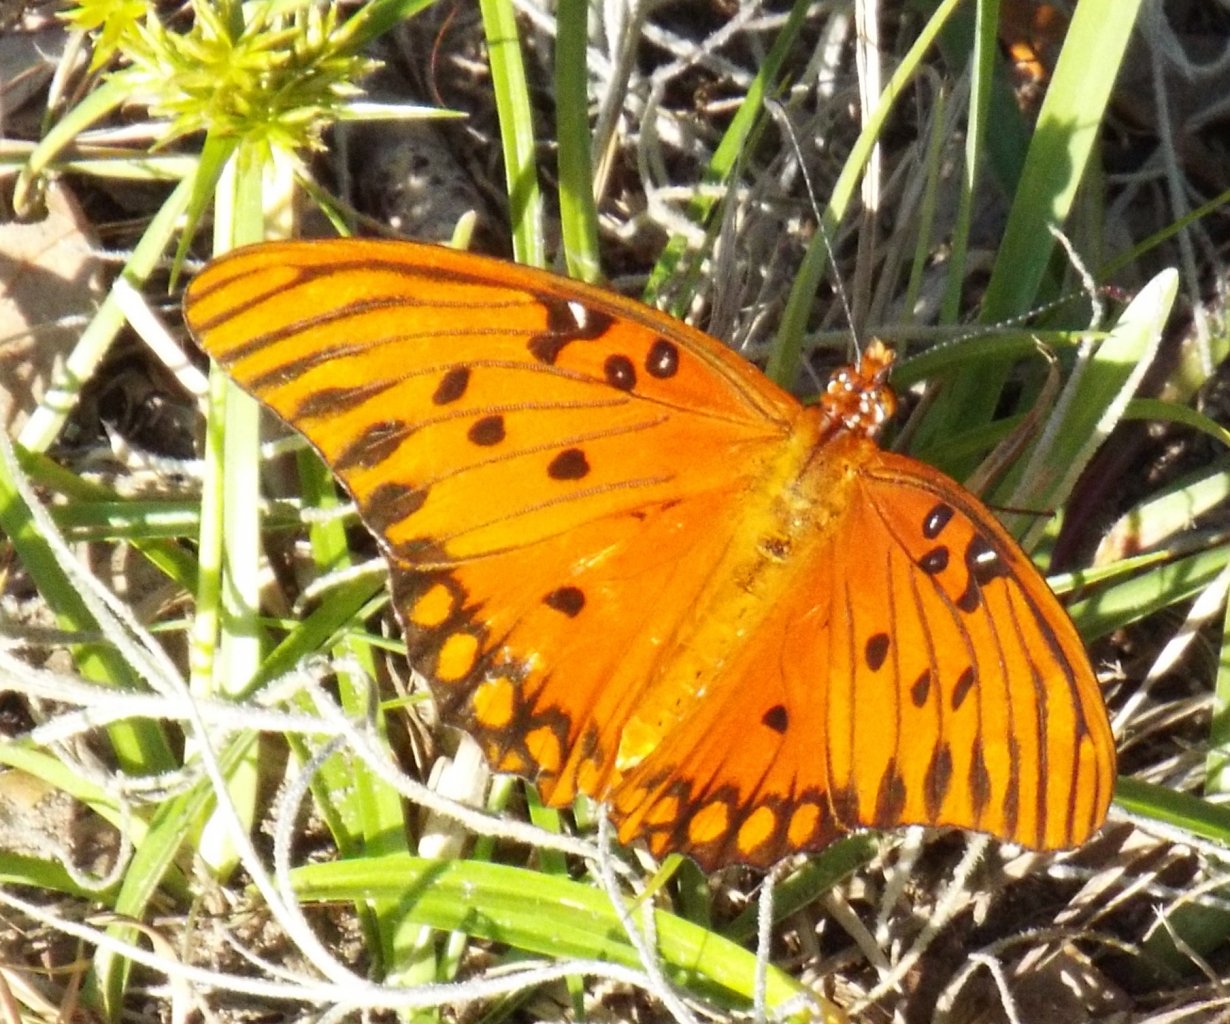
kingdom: Animalia
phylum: Arthropoda
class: Insecta
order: Lepidoptera
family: Nymphalidae
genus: Dione
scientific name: Dione vanillae
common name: Gulf Fritillary
